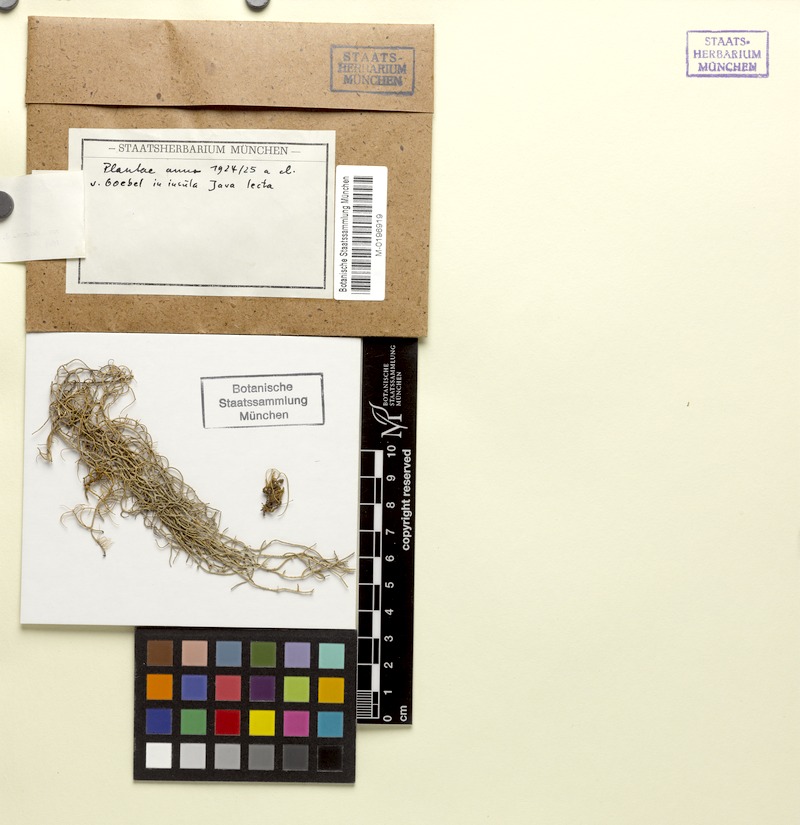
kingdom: Fungi
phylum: Ascomycota
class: Lecanoromycetes
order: Lecanorales
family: Parmeliaceae
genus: Usnea
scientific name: Usnea eumitrioides
